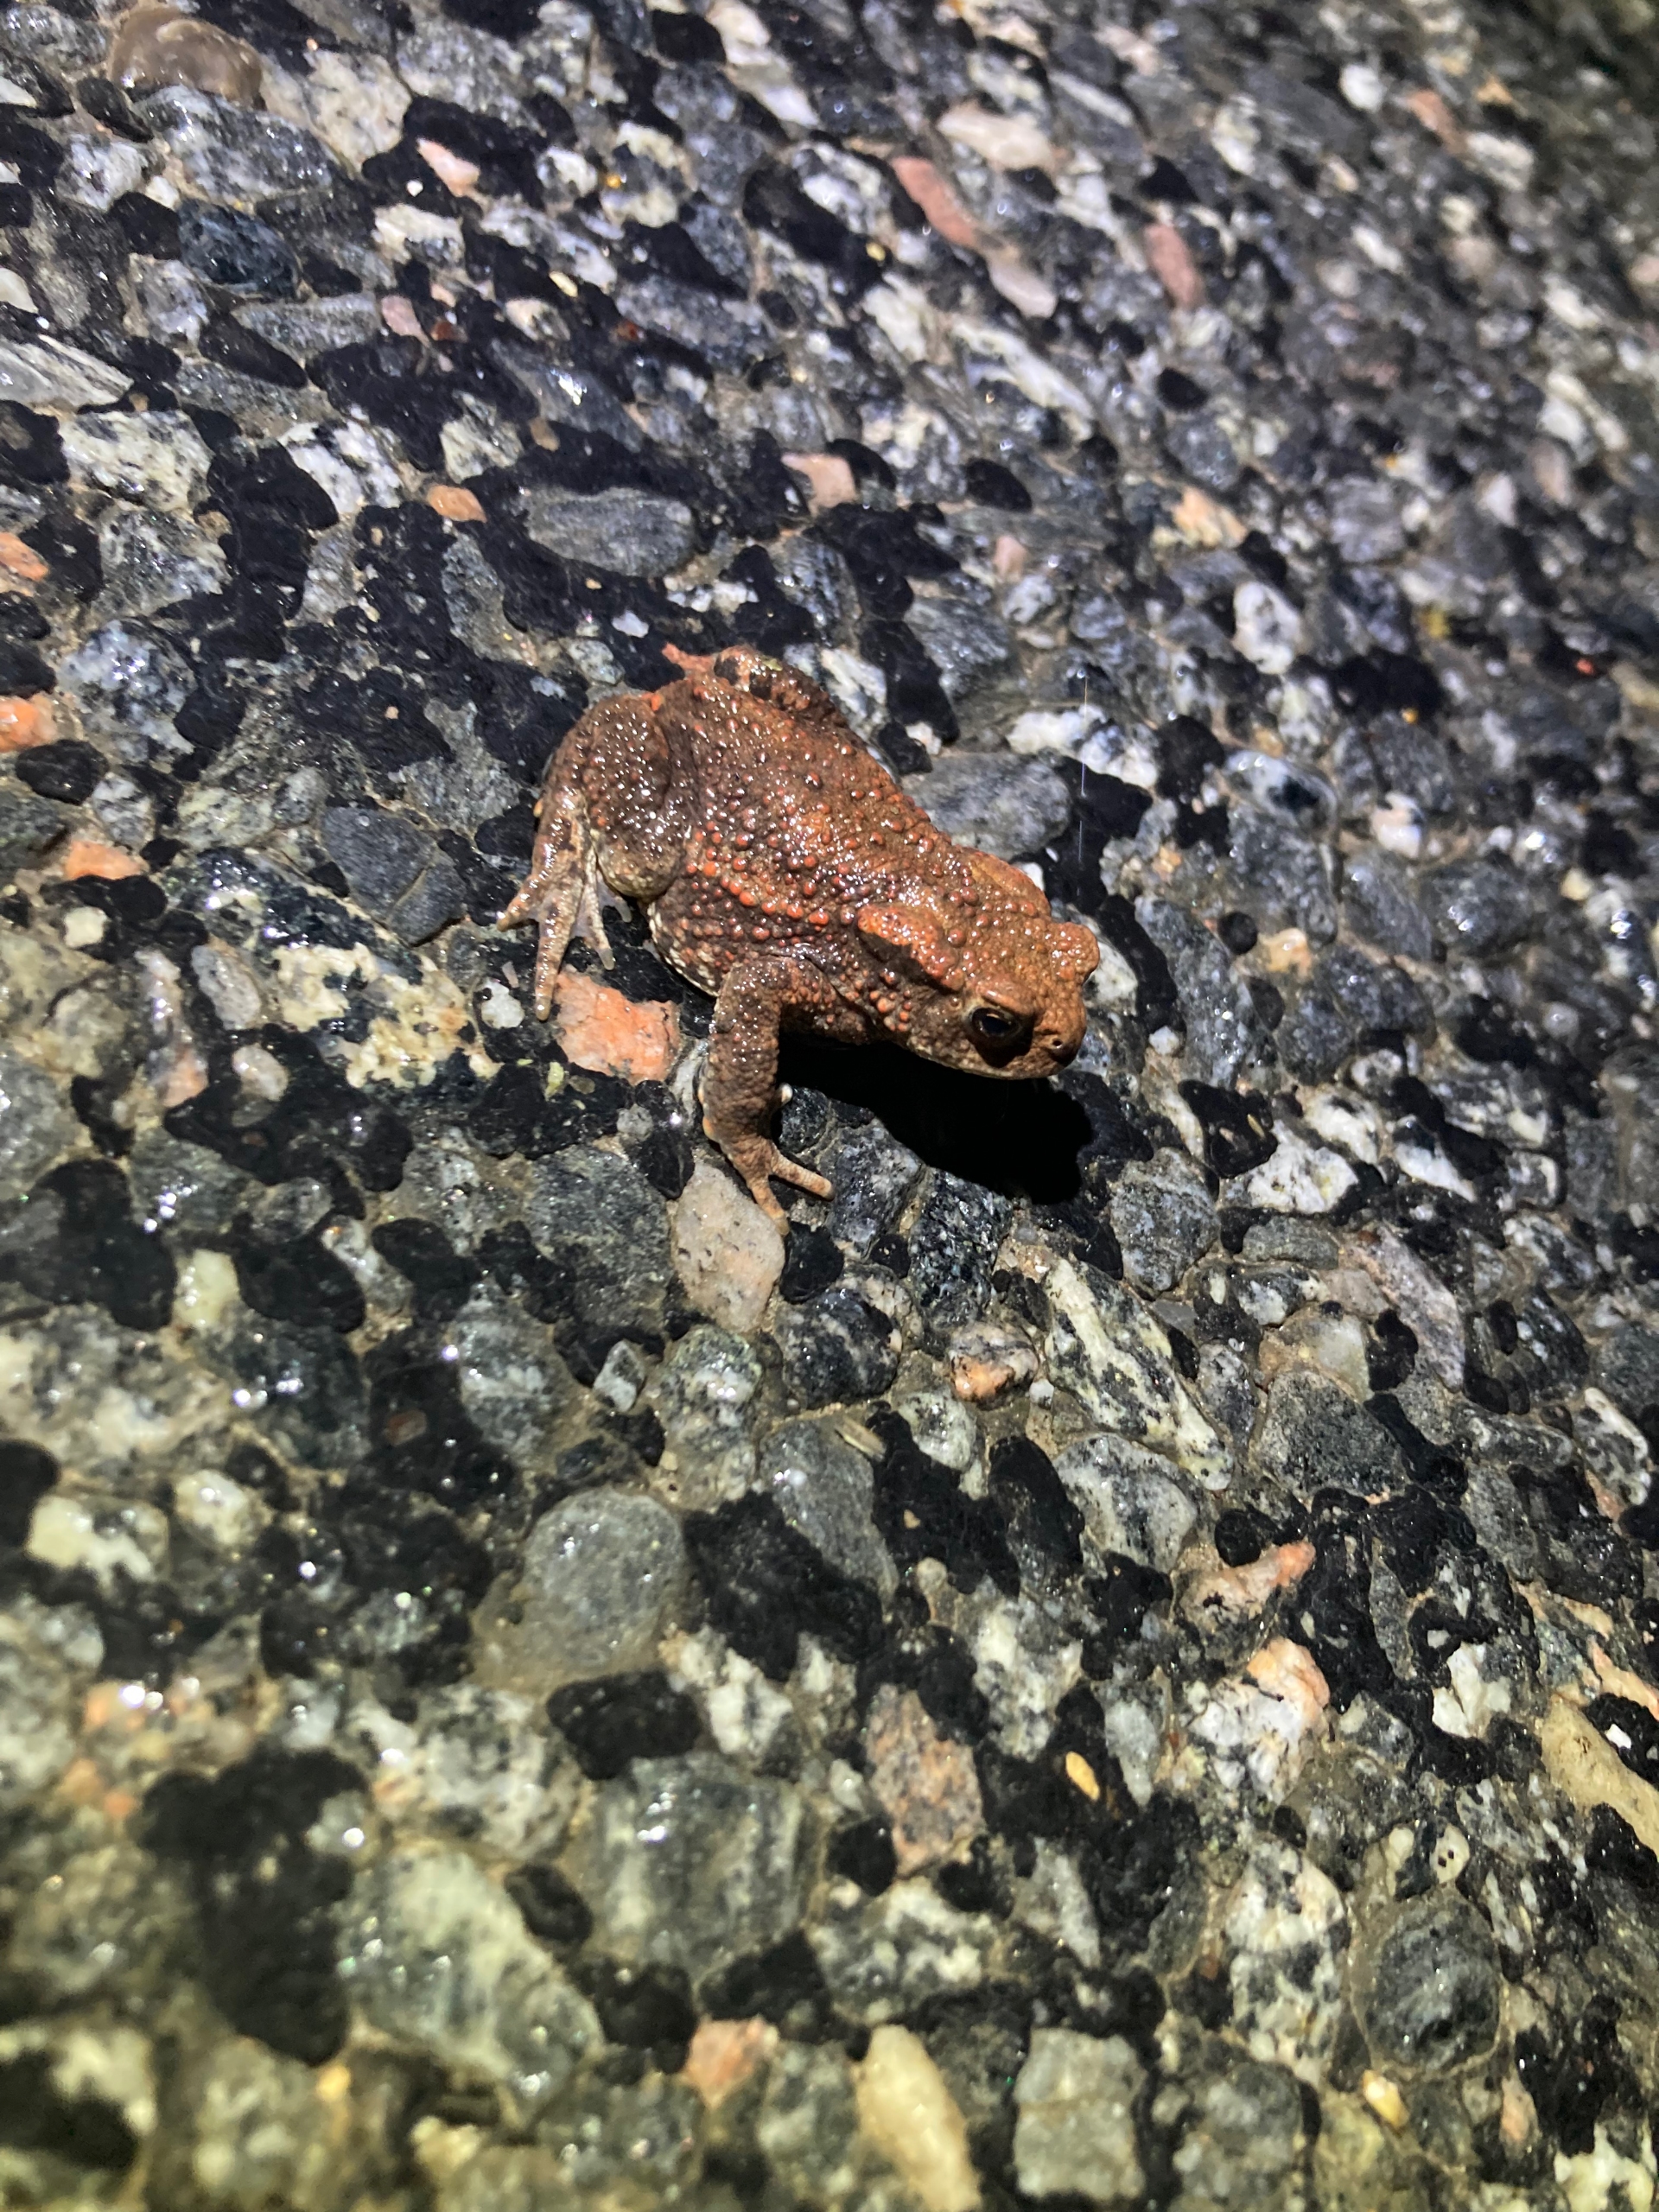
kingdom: Animalia
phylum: Chordata
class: Amphibia
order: Anura
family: Bufonidae
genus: Bufo
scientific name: Bufo bufo
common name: Skrubtudse
